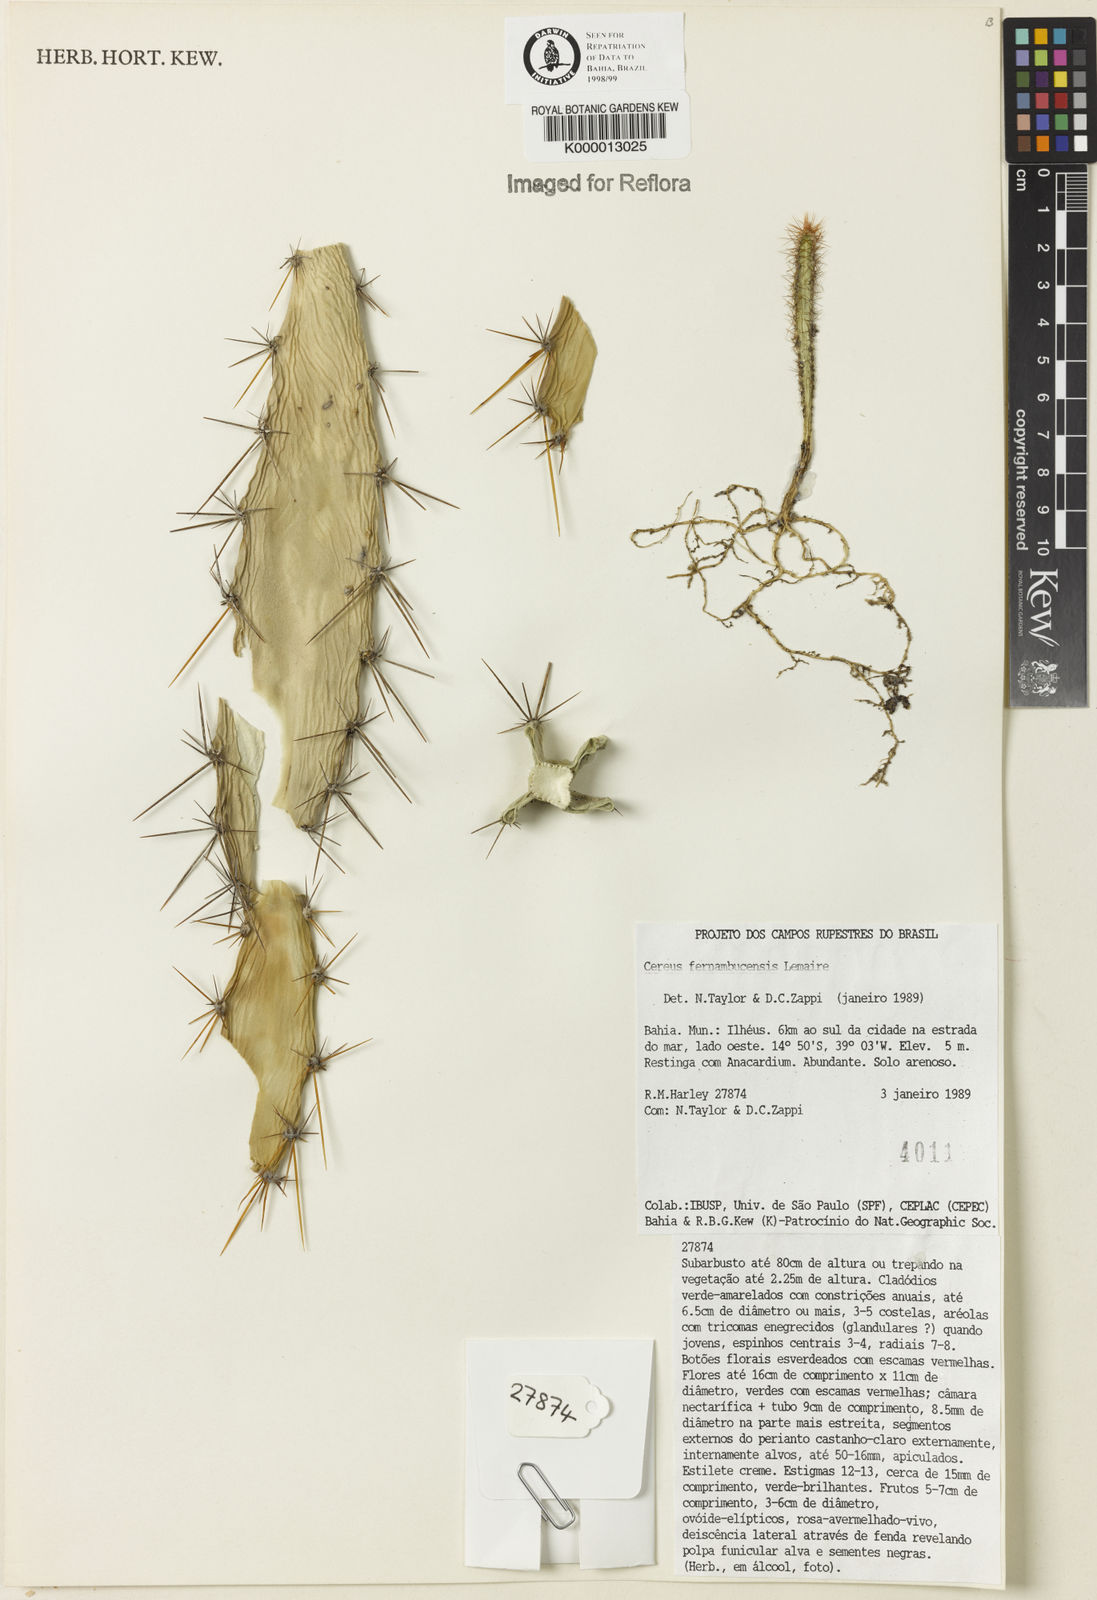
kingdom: Plantae
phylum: Tracheophyta
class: Magnoliopsida
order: Caryophyllales
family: Cactaceae
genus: Cereus
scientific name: Cereus fernambucensis
